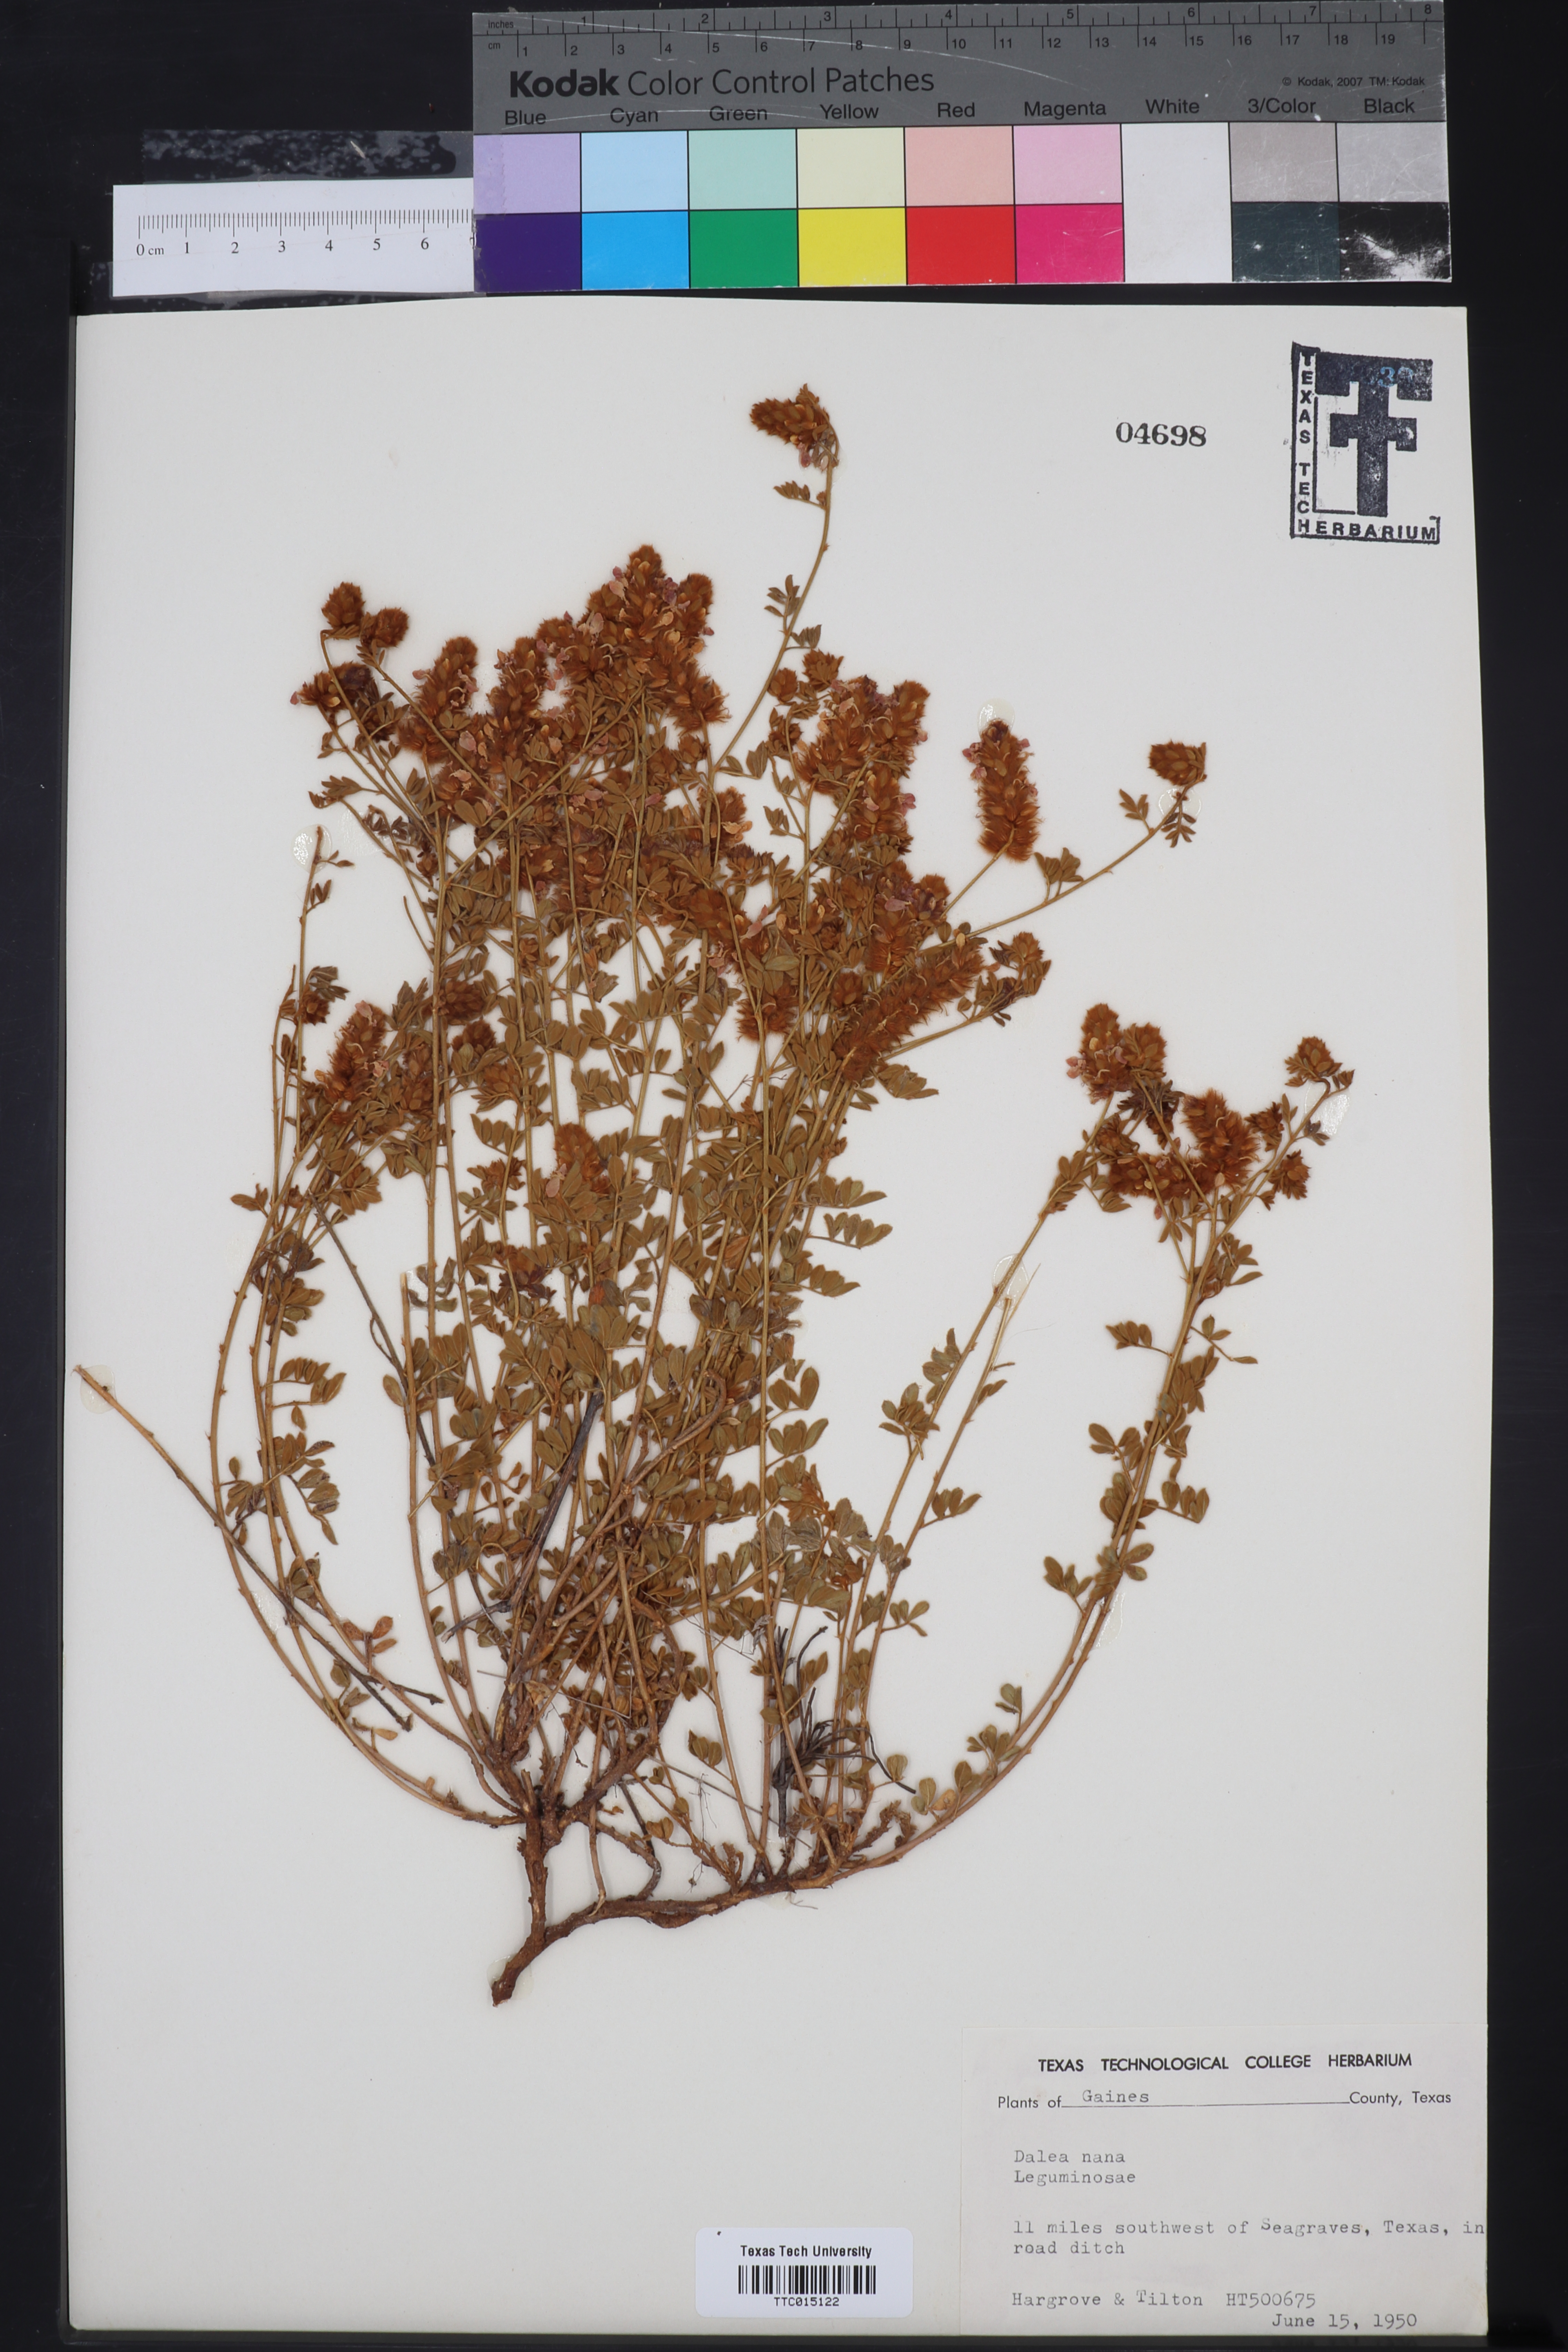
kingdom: Plantae
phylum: Tracheophyta
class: Magnoliopsida
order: Fabales
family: Fabaceae
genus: Dalea
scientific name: Dalea nana
